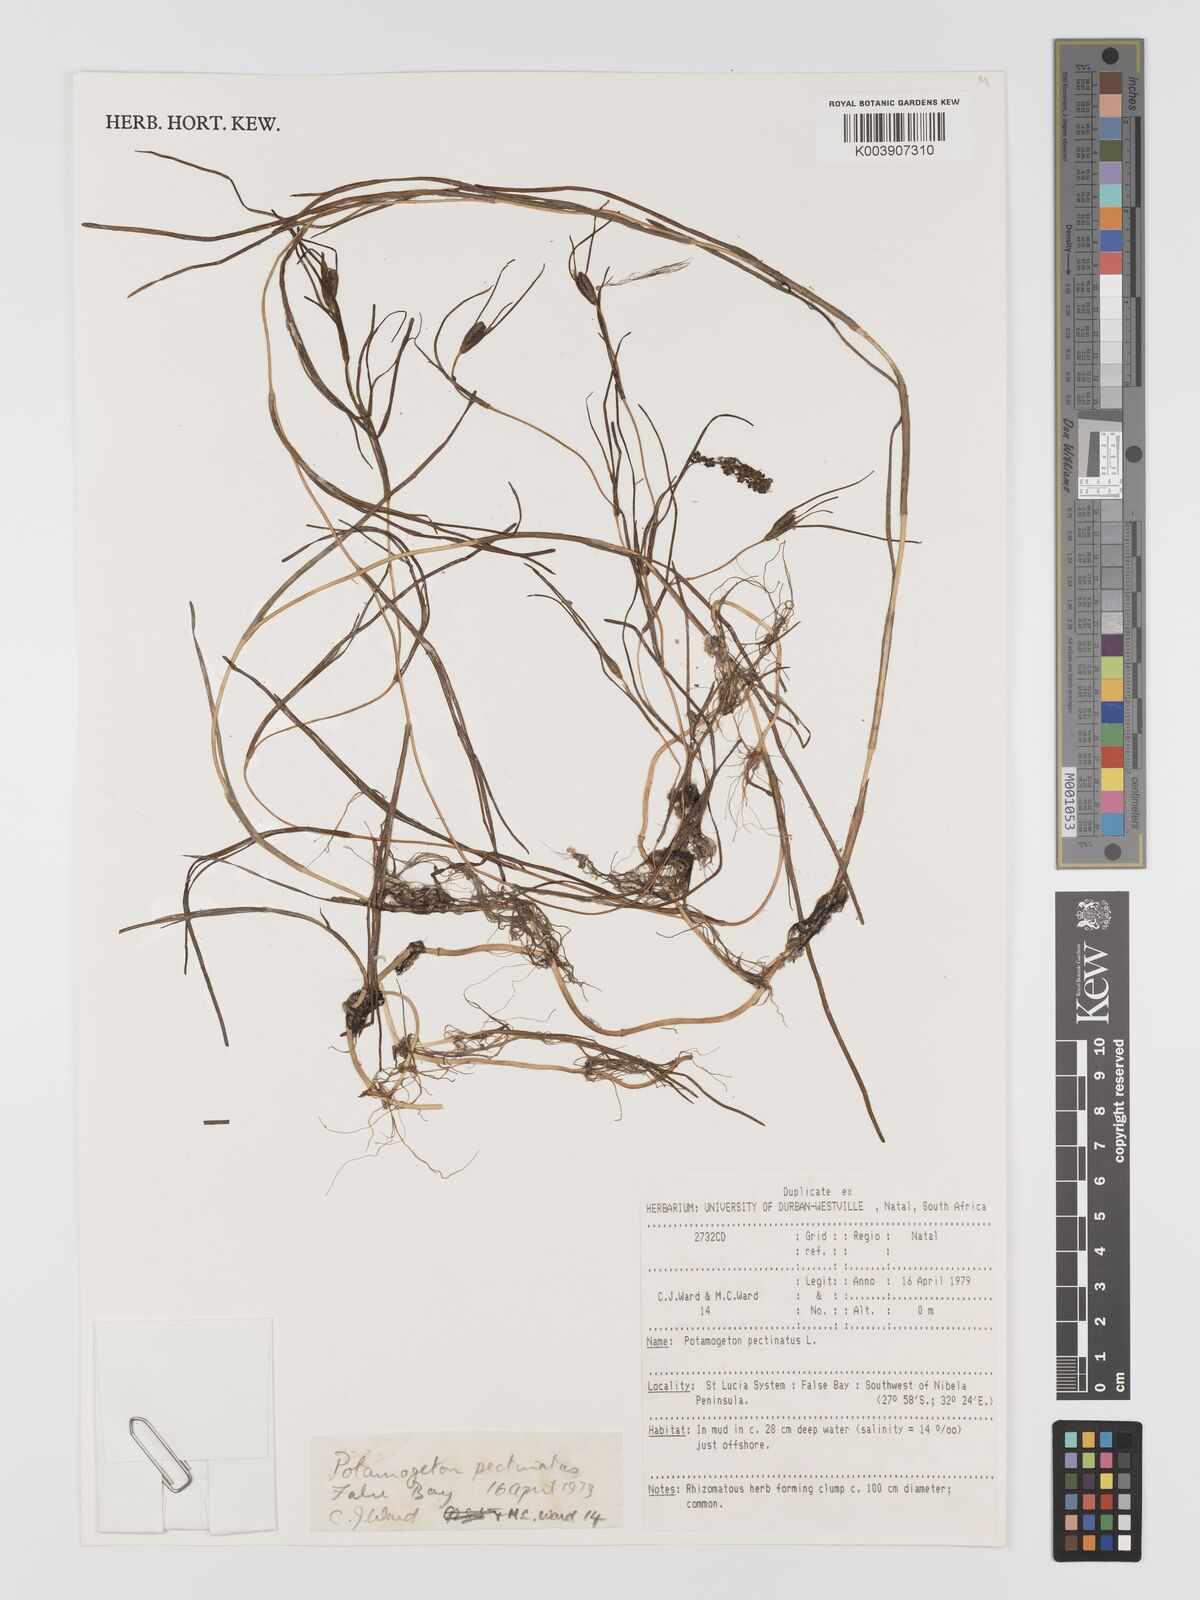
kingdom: Plantae
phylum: Tracheophyta
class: Liliopsida
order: Alismatales
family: Potamogetonaceae
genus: Stuckenia
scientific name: Stuckenia pectinata
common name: Sago pondweed
